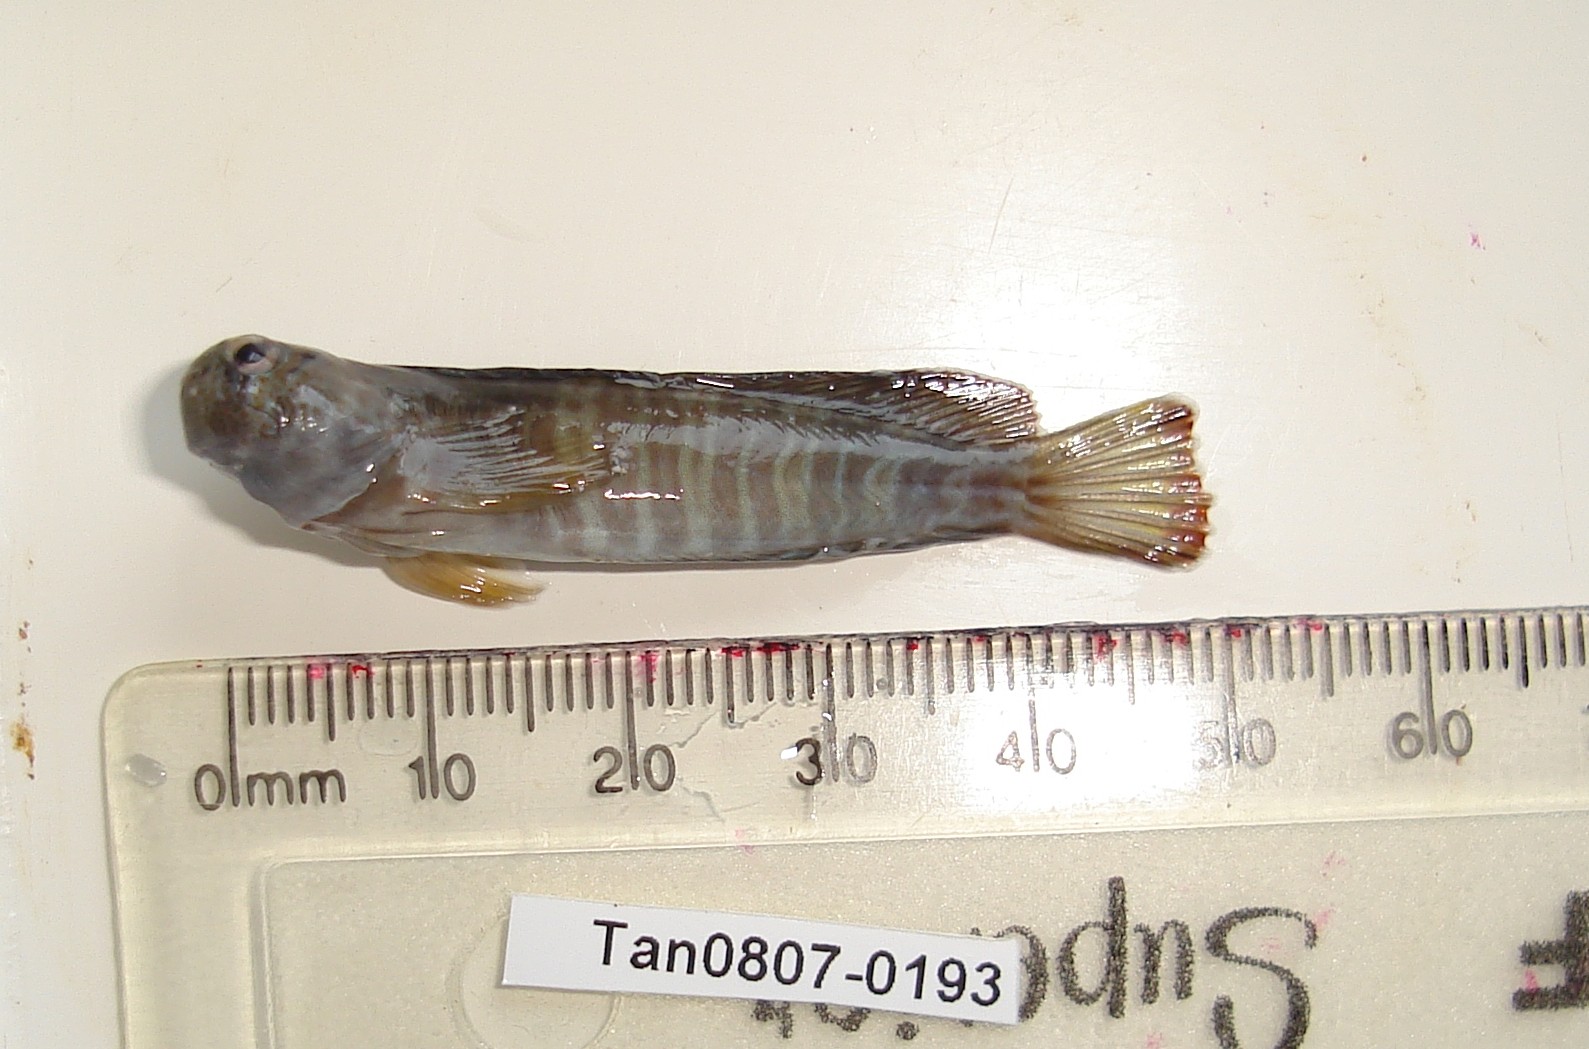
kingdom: Animalia
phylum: Chordata
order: Perciformes
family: Blenniidae
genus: Istiblennius
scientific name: Istiblennius edentulus
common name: Rippled rockskipper
